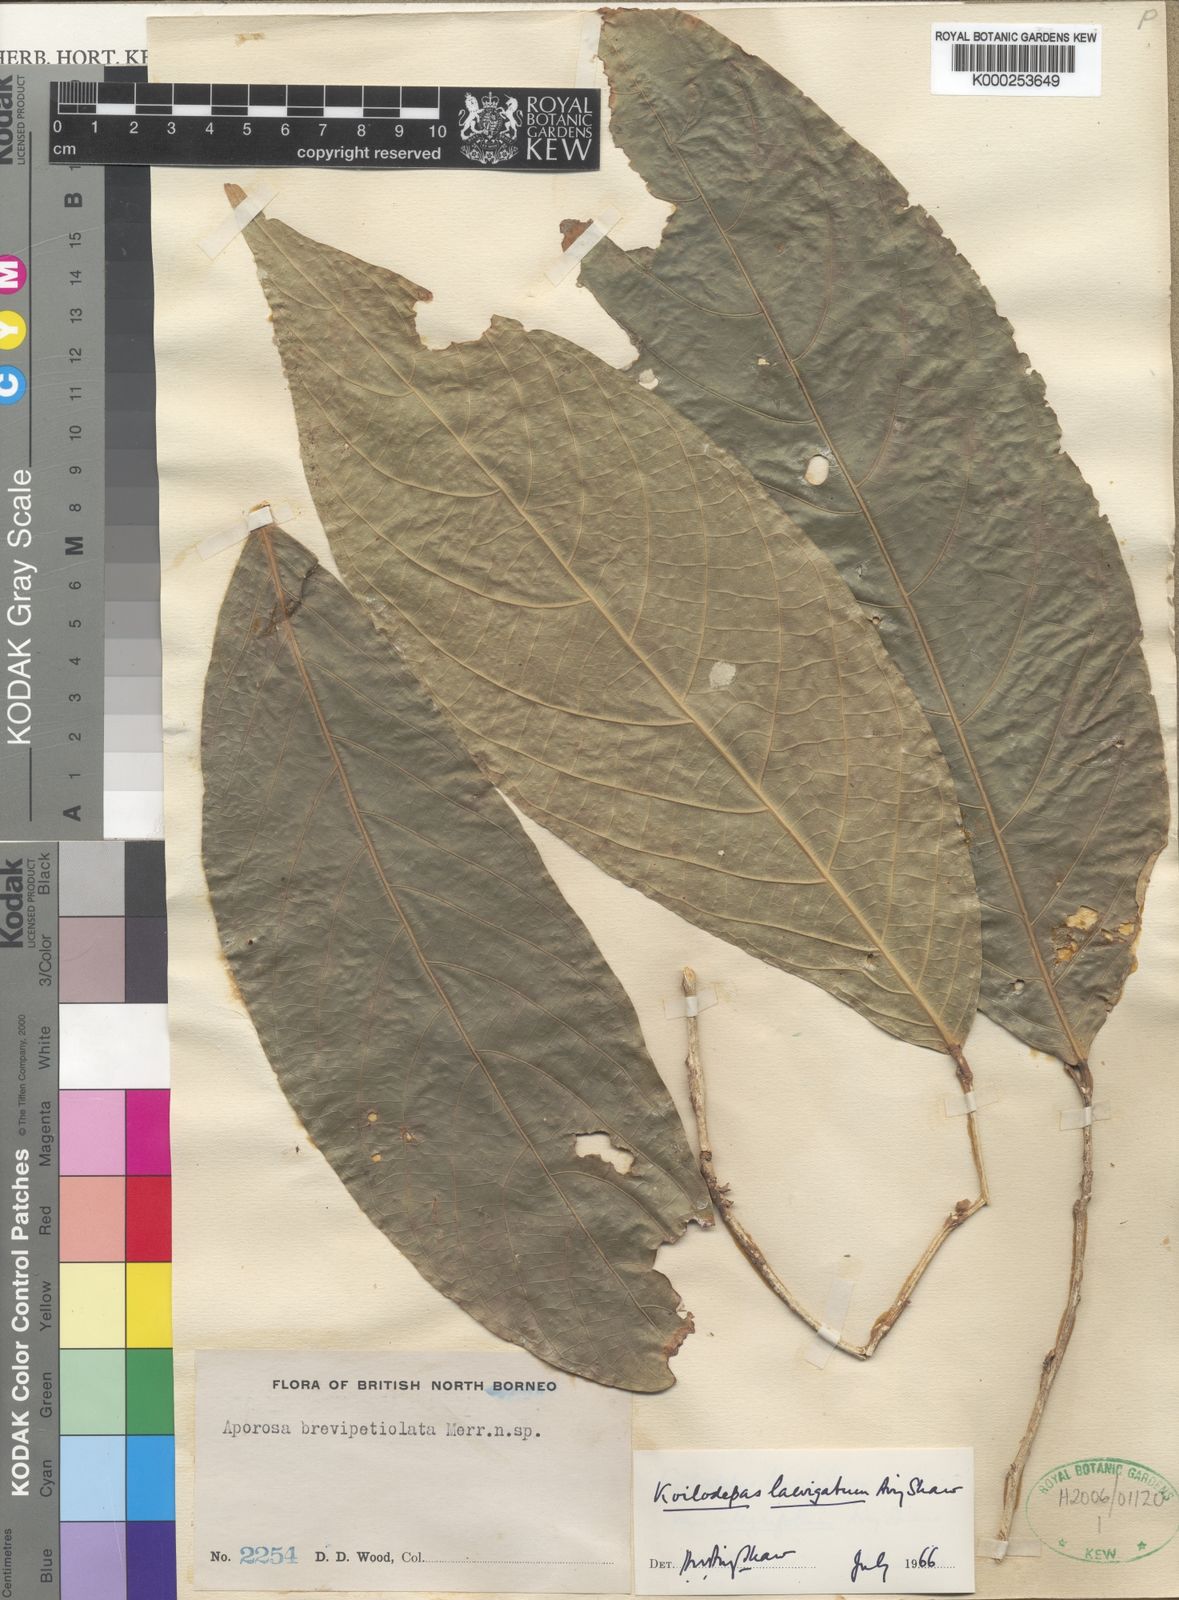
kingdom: Plantae
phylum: Tracheophyta
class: Magnoliopsida
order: Malpighiales
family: Euphorbiaceae
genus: Koilodepas
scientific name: Koilodepas laevigatum
